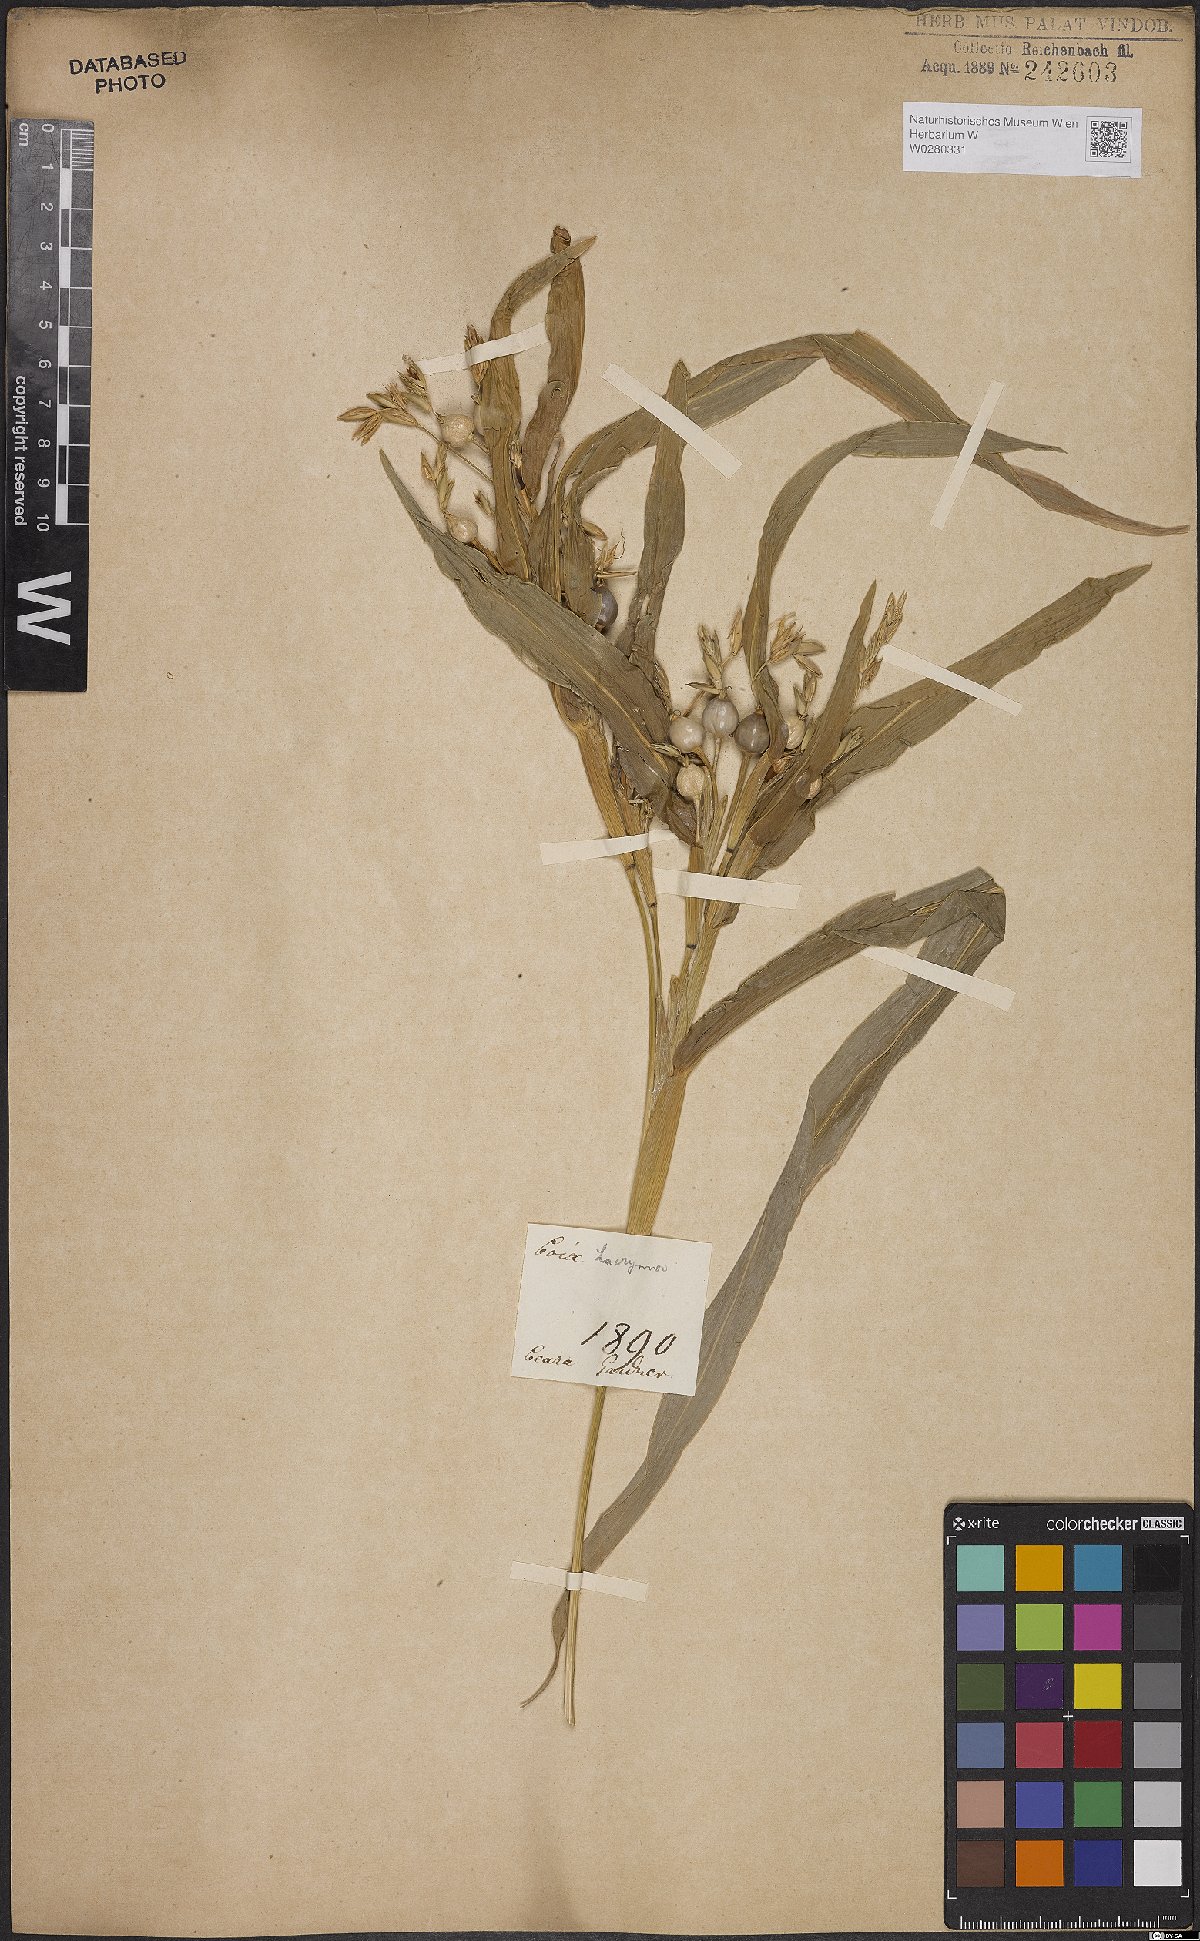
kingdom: Plantae
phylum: Tracheophyta
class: Liliopsida
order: Poales
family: Poaceae
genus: Coix
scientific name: Coix lacryma-jobi
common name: Job's tears
